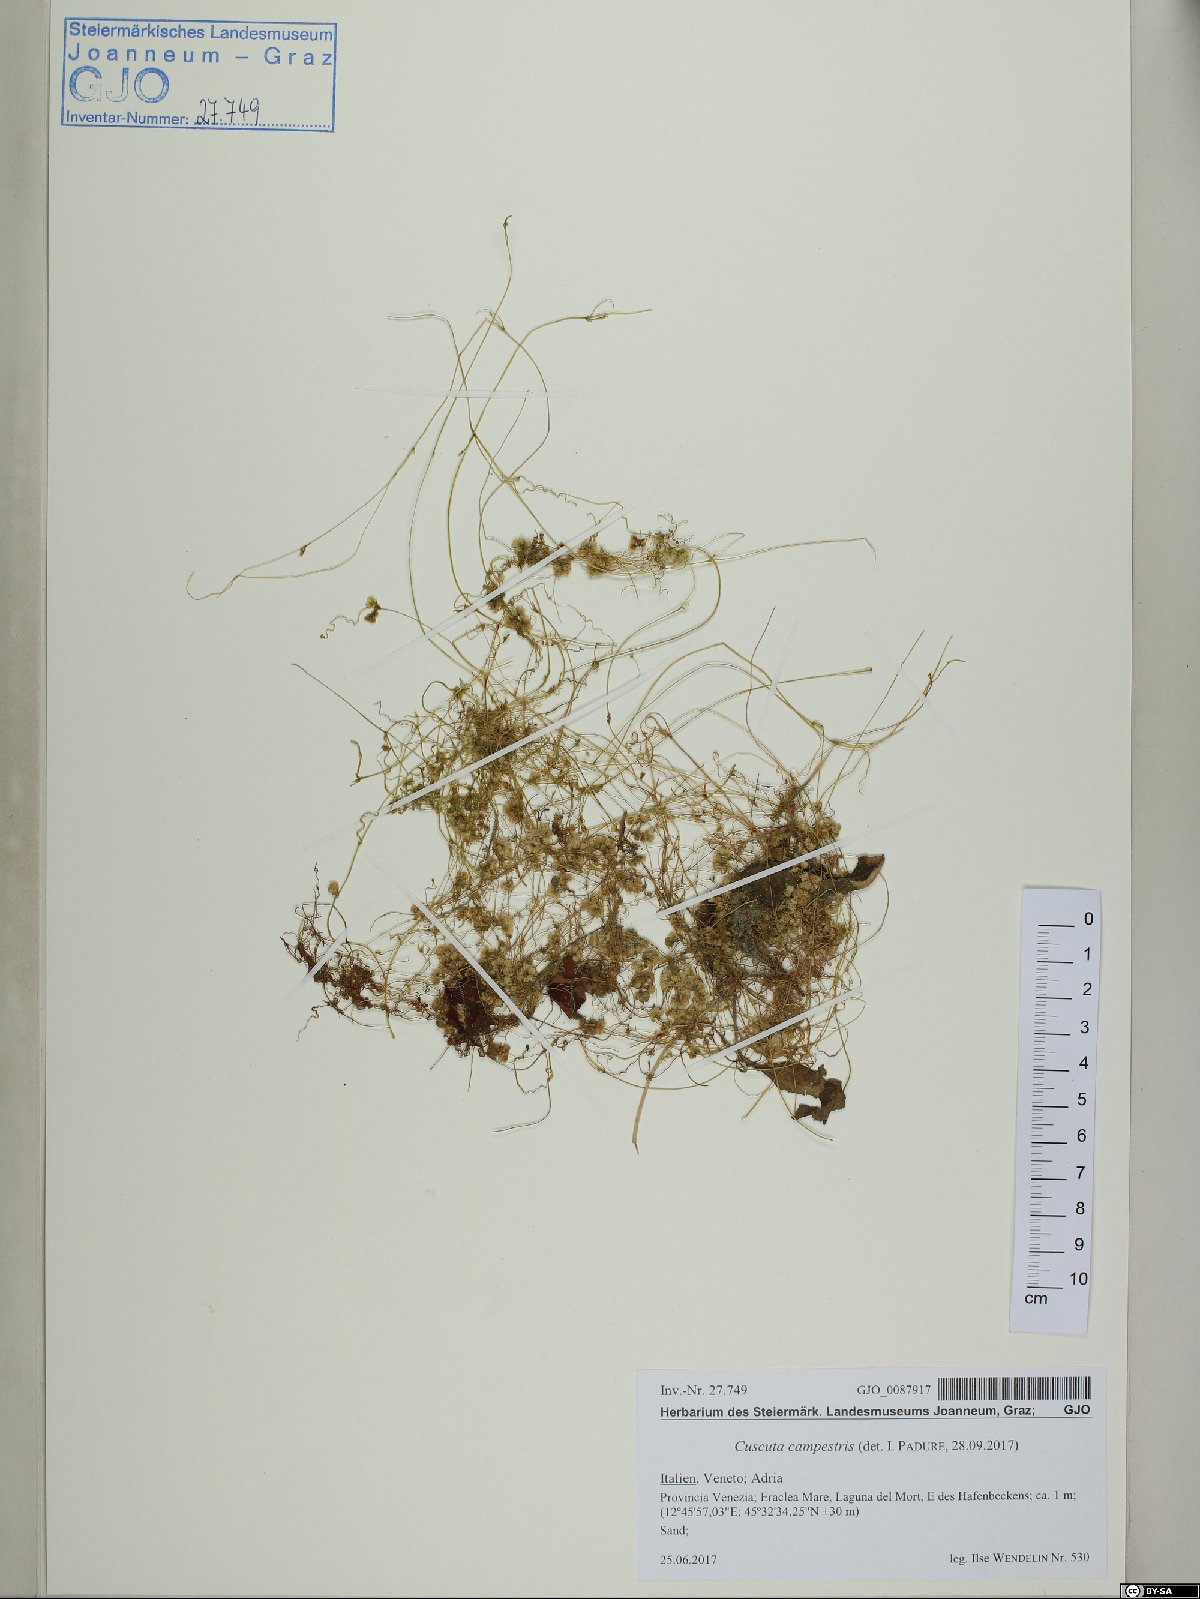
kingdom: Plantae
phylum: Tracheophyta
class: Magnoliopsida
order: Solanales
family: Convolvulaceae
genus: Cuscuta
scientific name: Cuscuta campestris
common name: Yellow dodder
